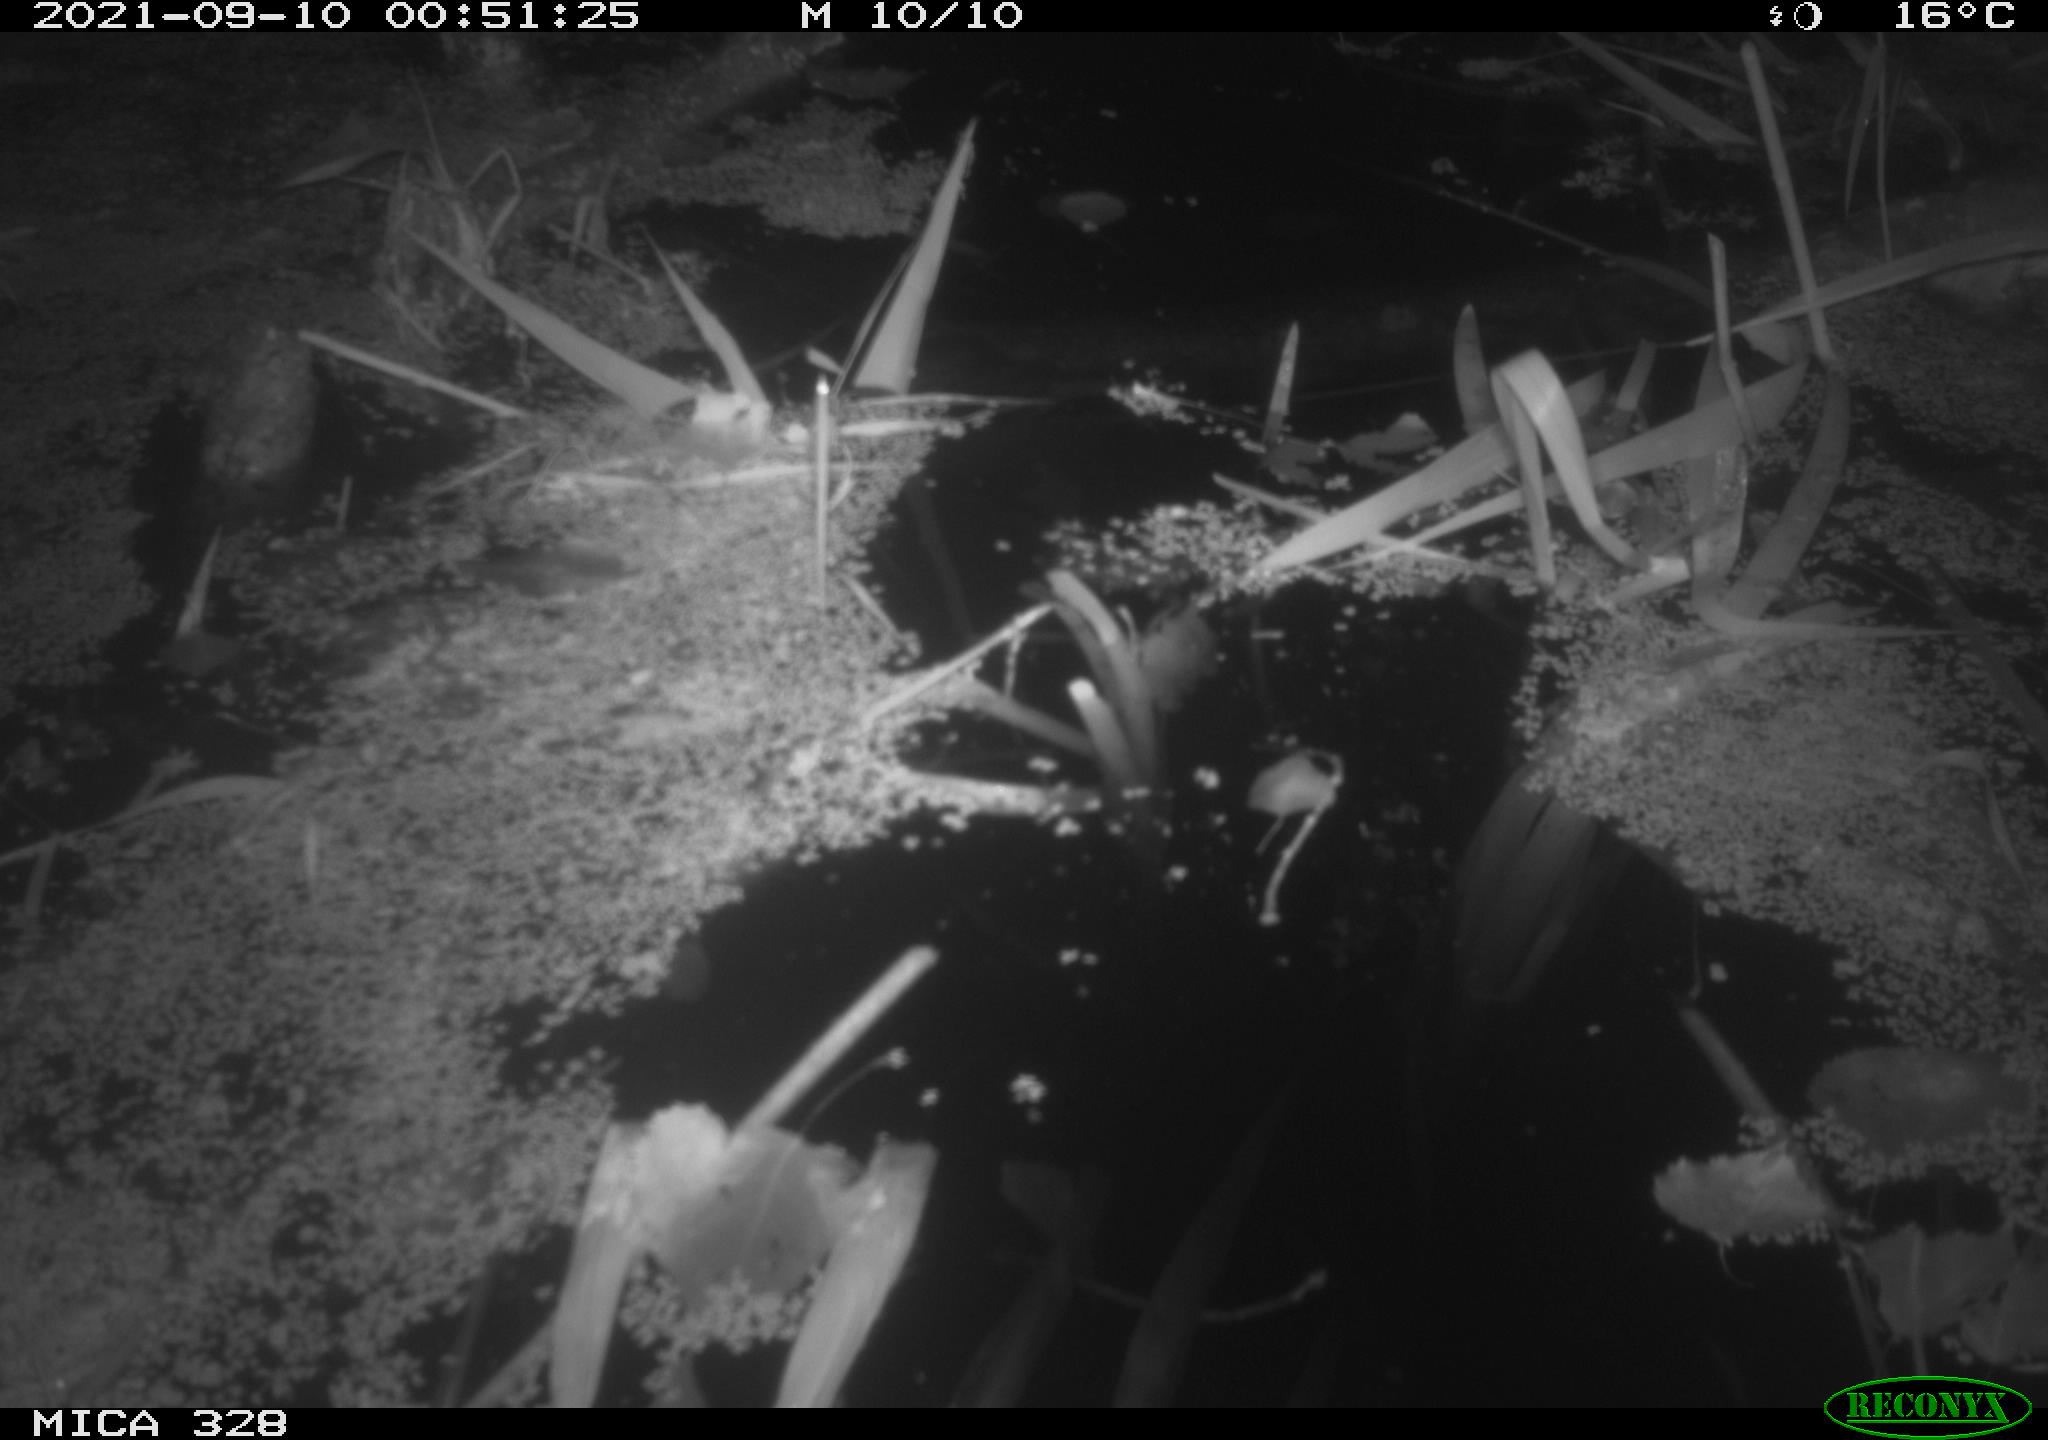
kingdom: Animalia
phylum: Chordata
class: Mammalia
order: Rodentia
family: Cricetidae
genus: Ondatra
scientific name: Ondatra zibethicus
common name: Muskrat
